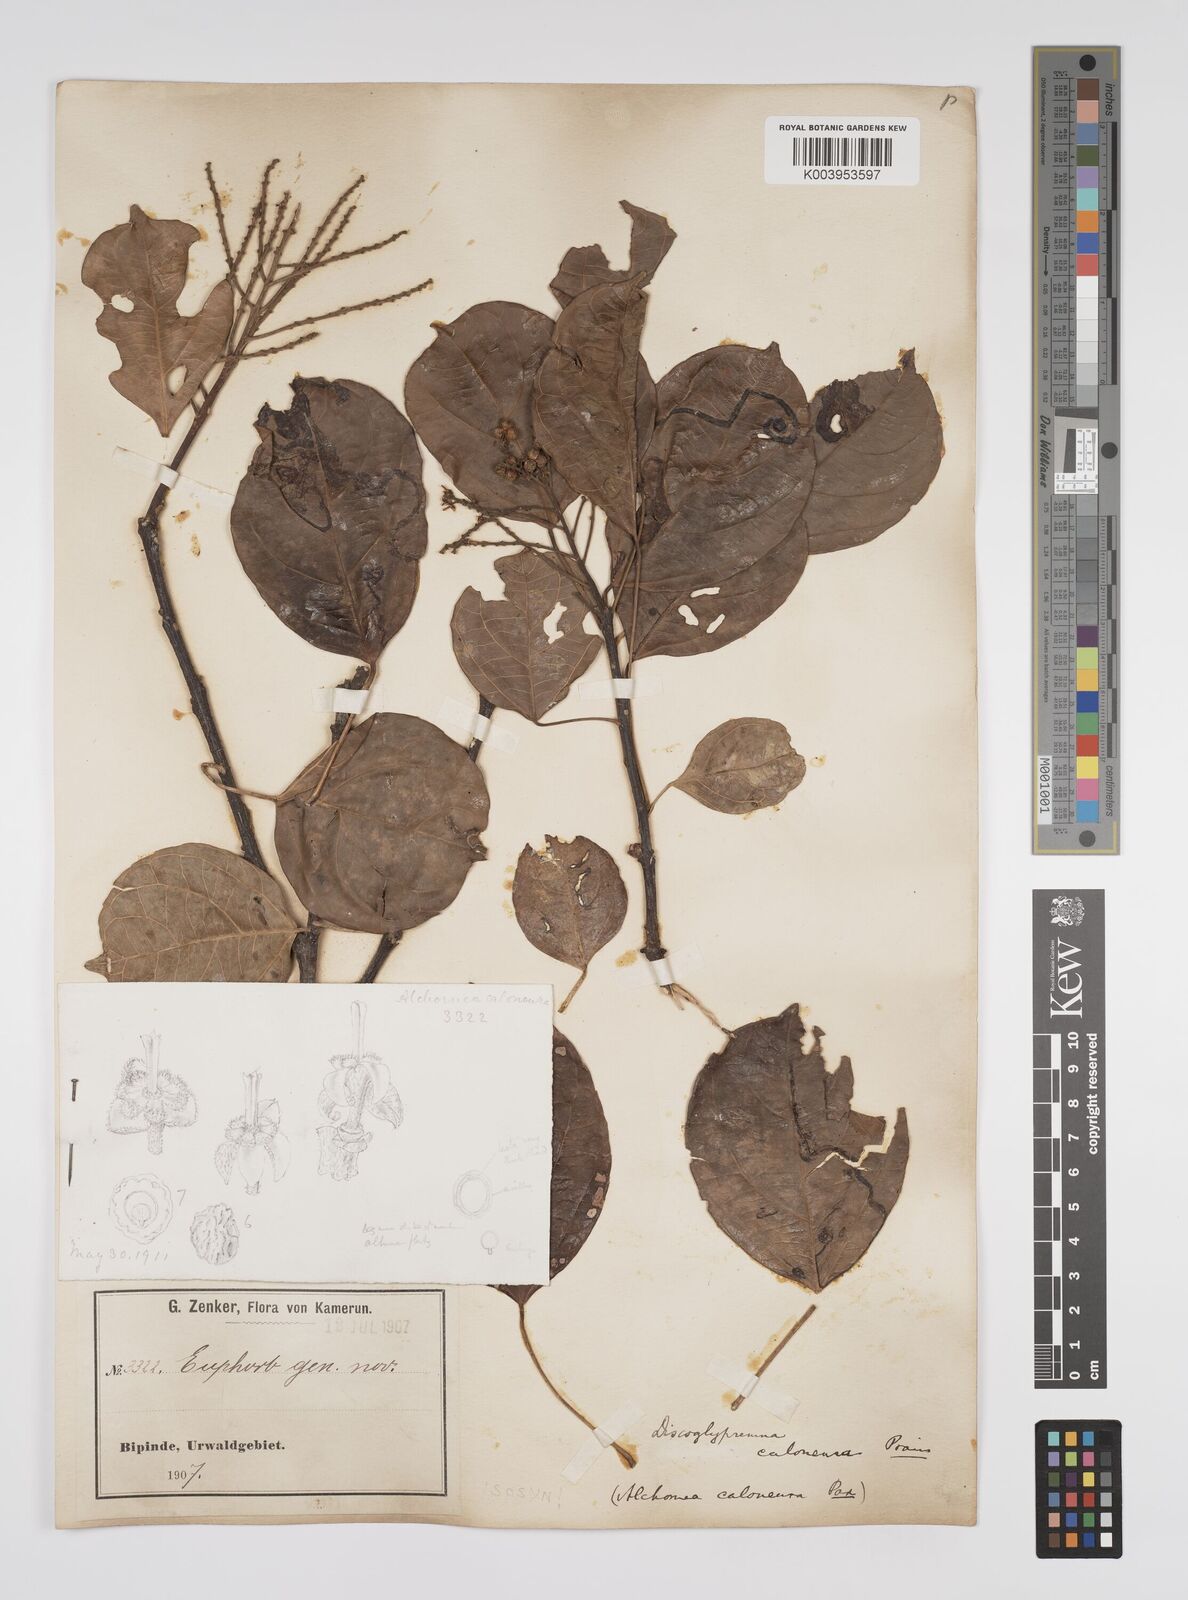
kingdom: Plantae
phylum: Tracheophyta
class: Magnoliopsida
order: Malpighiales
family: Euphorbiaceae
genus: Discoglypremna
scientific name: Discoglypremna caloneura
